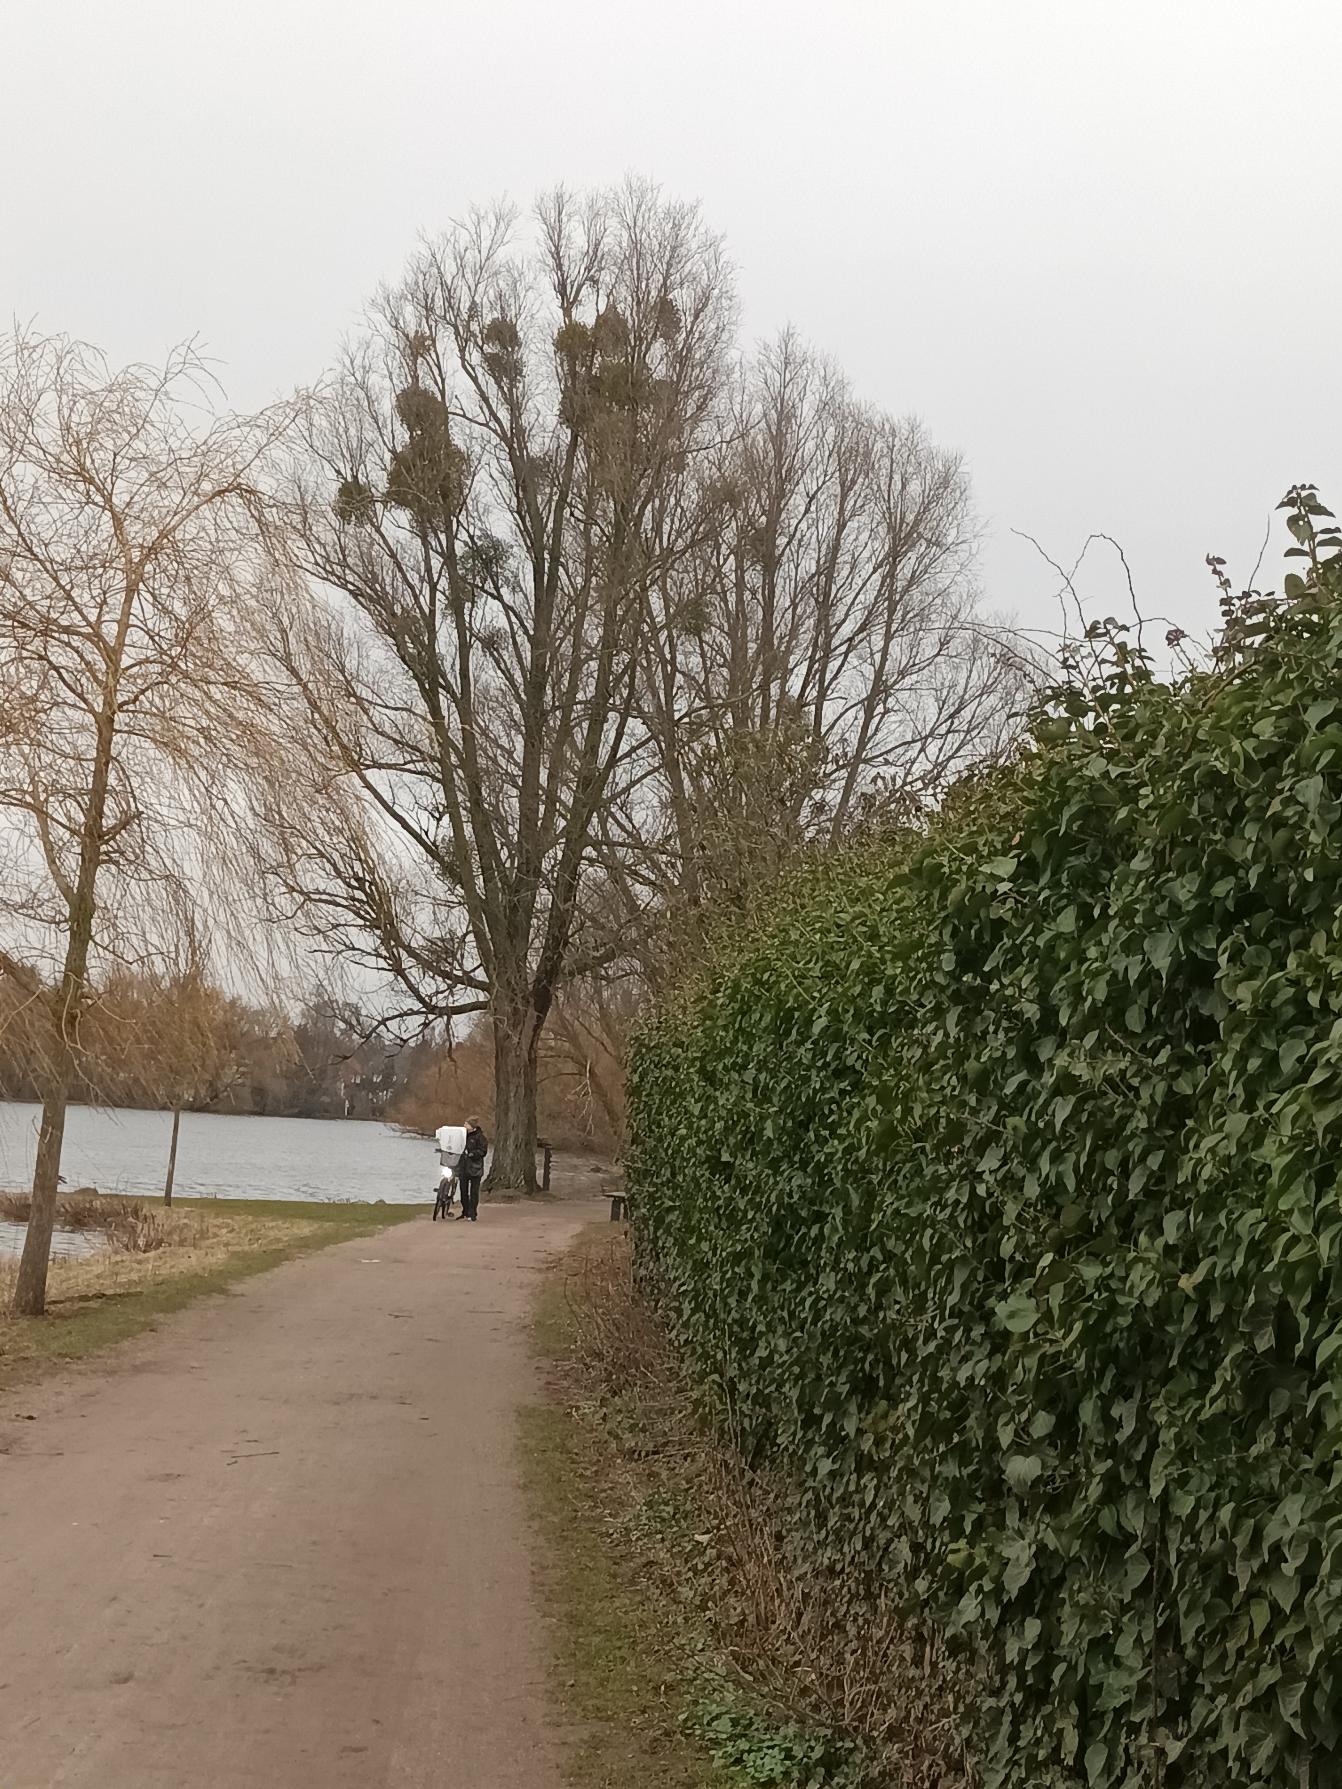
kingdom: Plantae
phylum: Tracheophyta
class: Magnoliopsida
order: Santalales
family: Viscaceae
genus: Viscum
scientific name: Viscum album
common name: Mistelten
